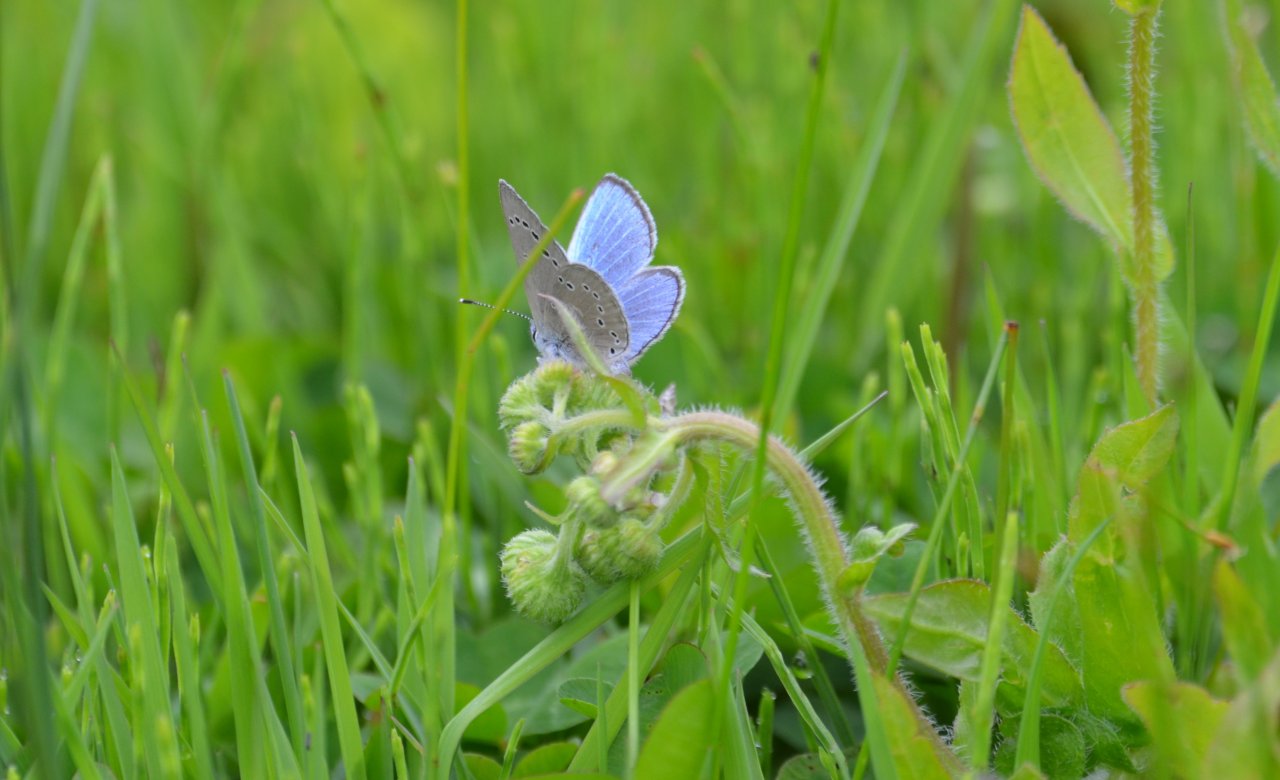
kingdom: Animalia
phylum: Arthropoda
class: Insecta
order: Lepidoptera
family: Lycaenidae
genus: Glaucopsyche
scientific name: Glaucopsyche lygdamus
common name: Silvery Blue
